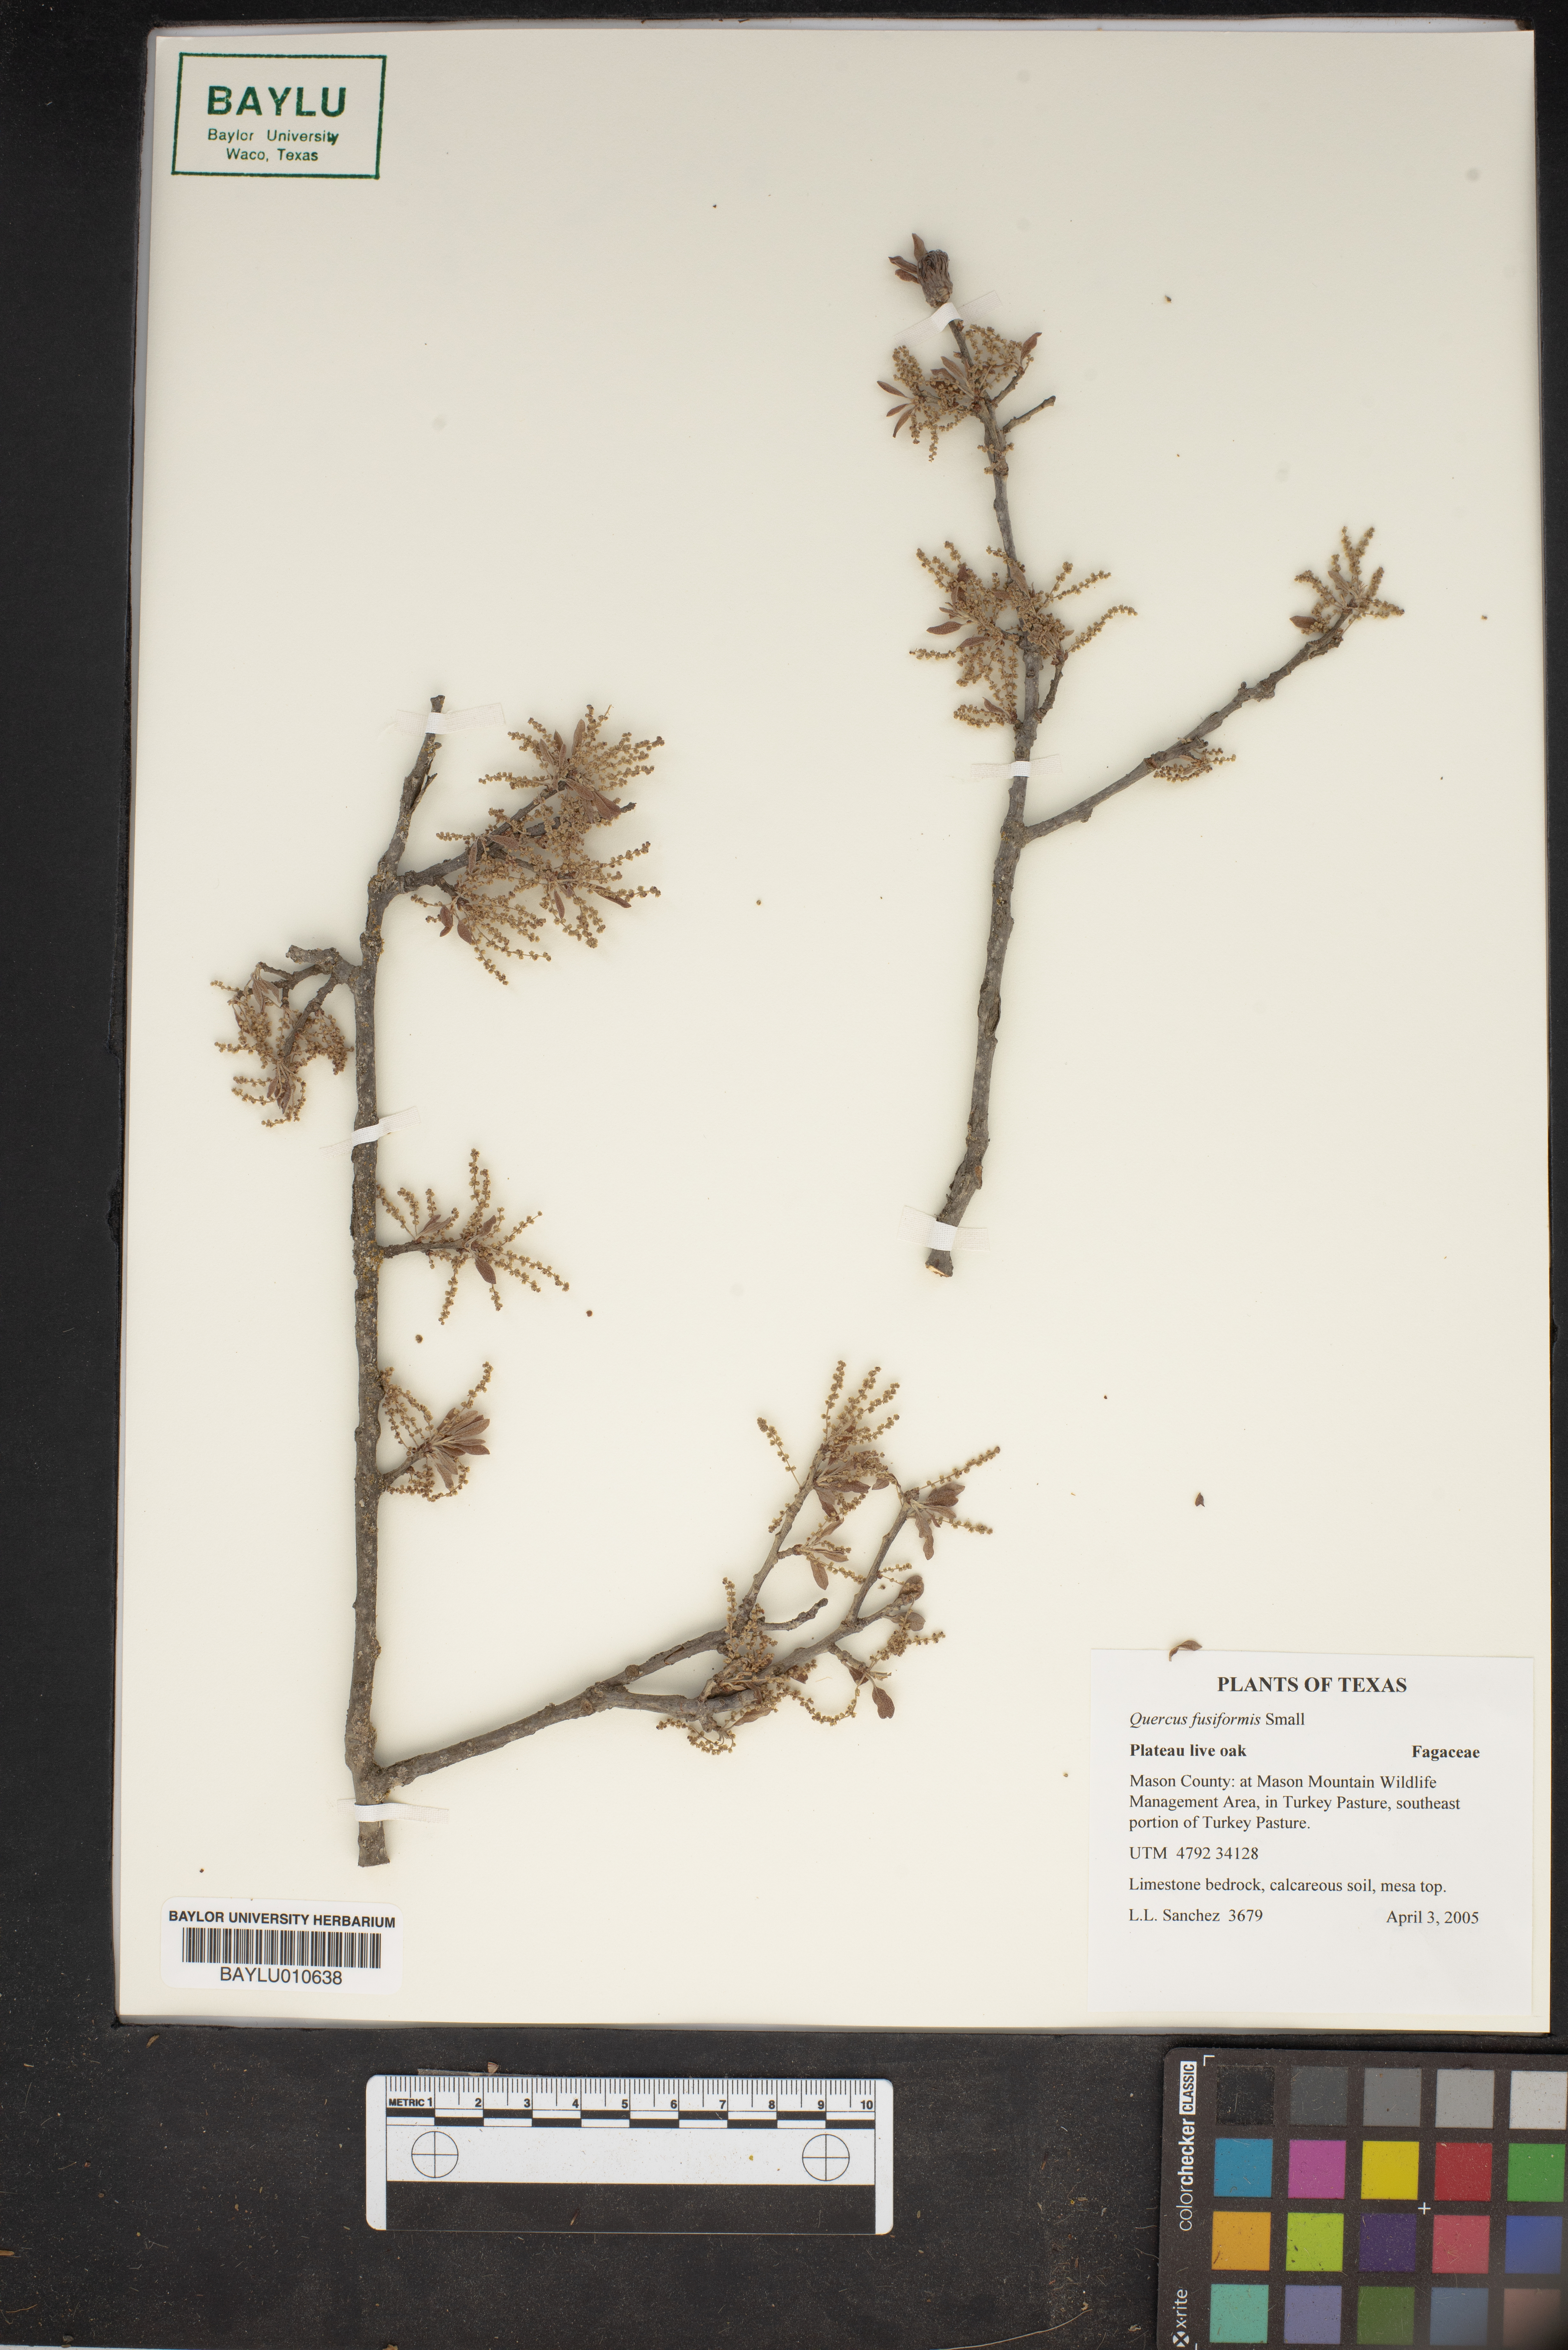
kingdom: Plantae
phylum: Tracheophyta
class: Magnoliopsida
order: Fagales
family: Fagaceae
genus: Quercus
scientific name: Quercus fusiformis
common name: Texas live oak
